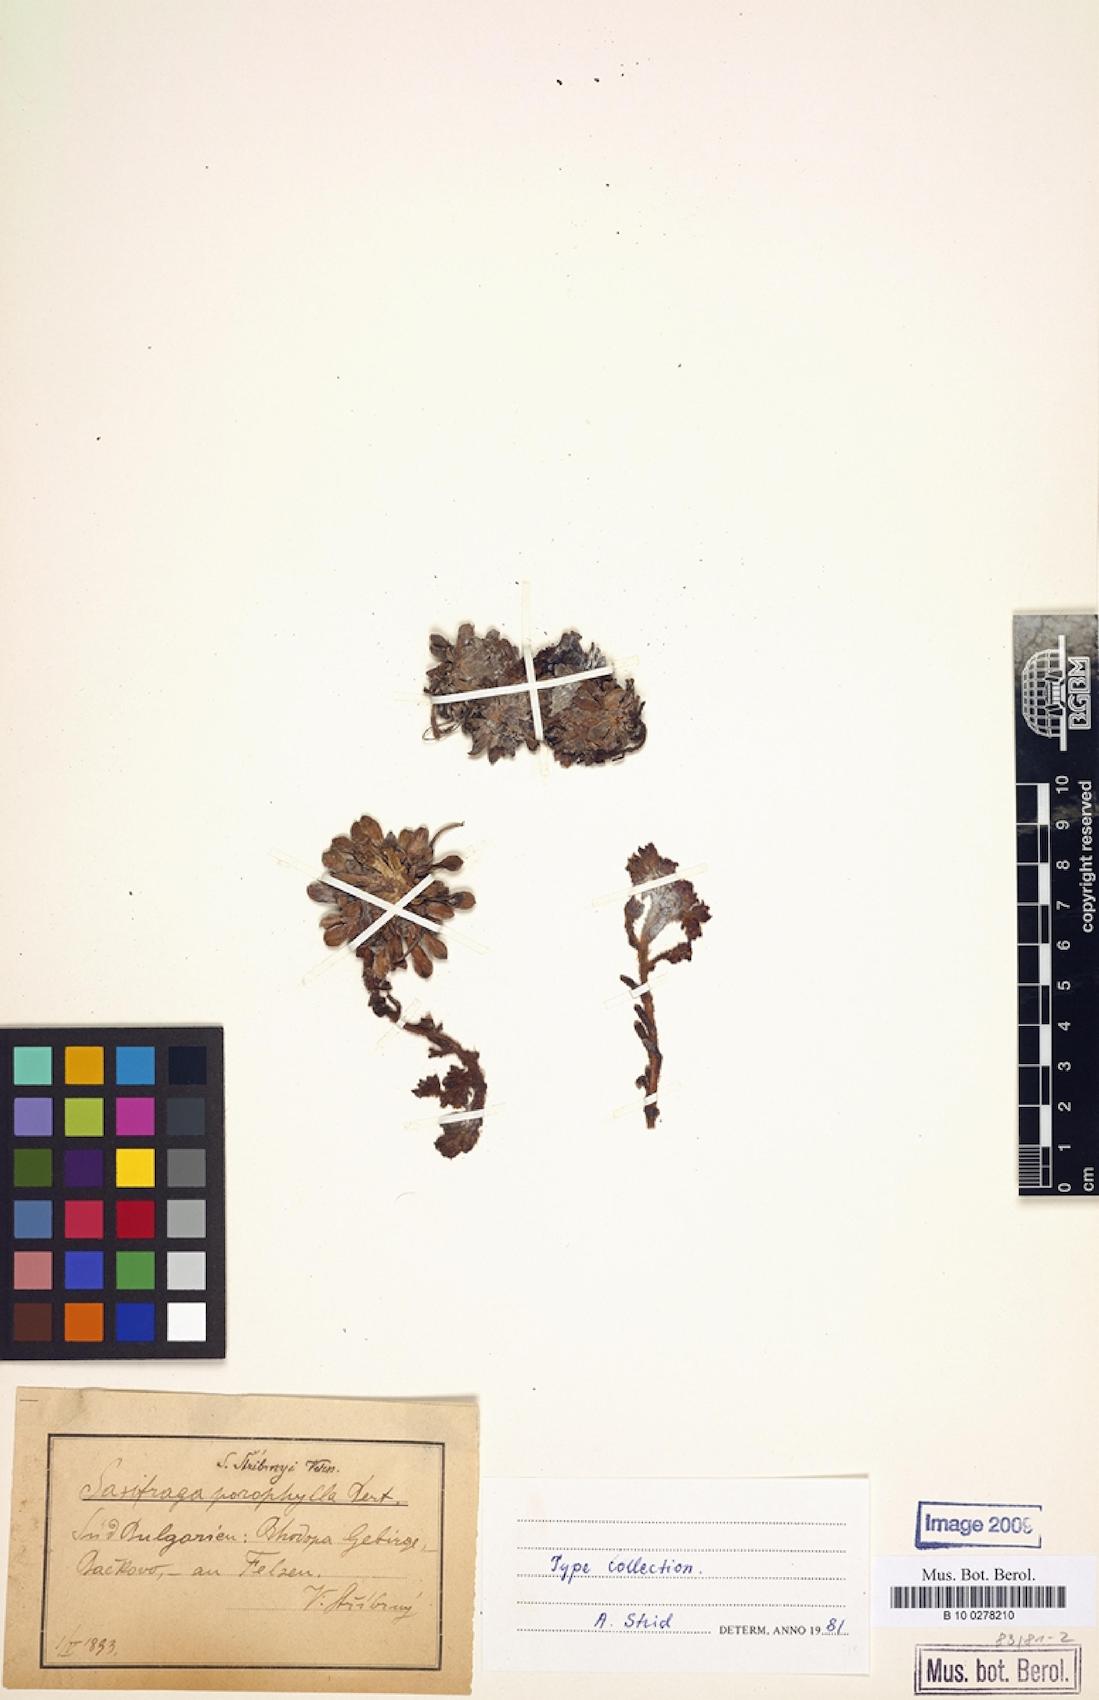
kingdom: Plantae
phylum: Tracheophyta
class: Magnoliopsida
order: Saxifragales
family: Saxifragaceae
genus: Saxifraga
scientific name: Saxifraga stribrnyi
